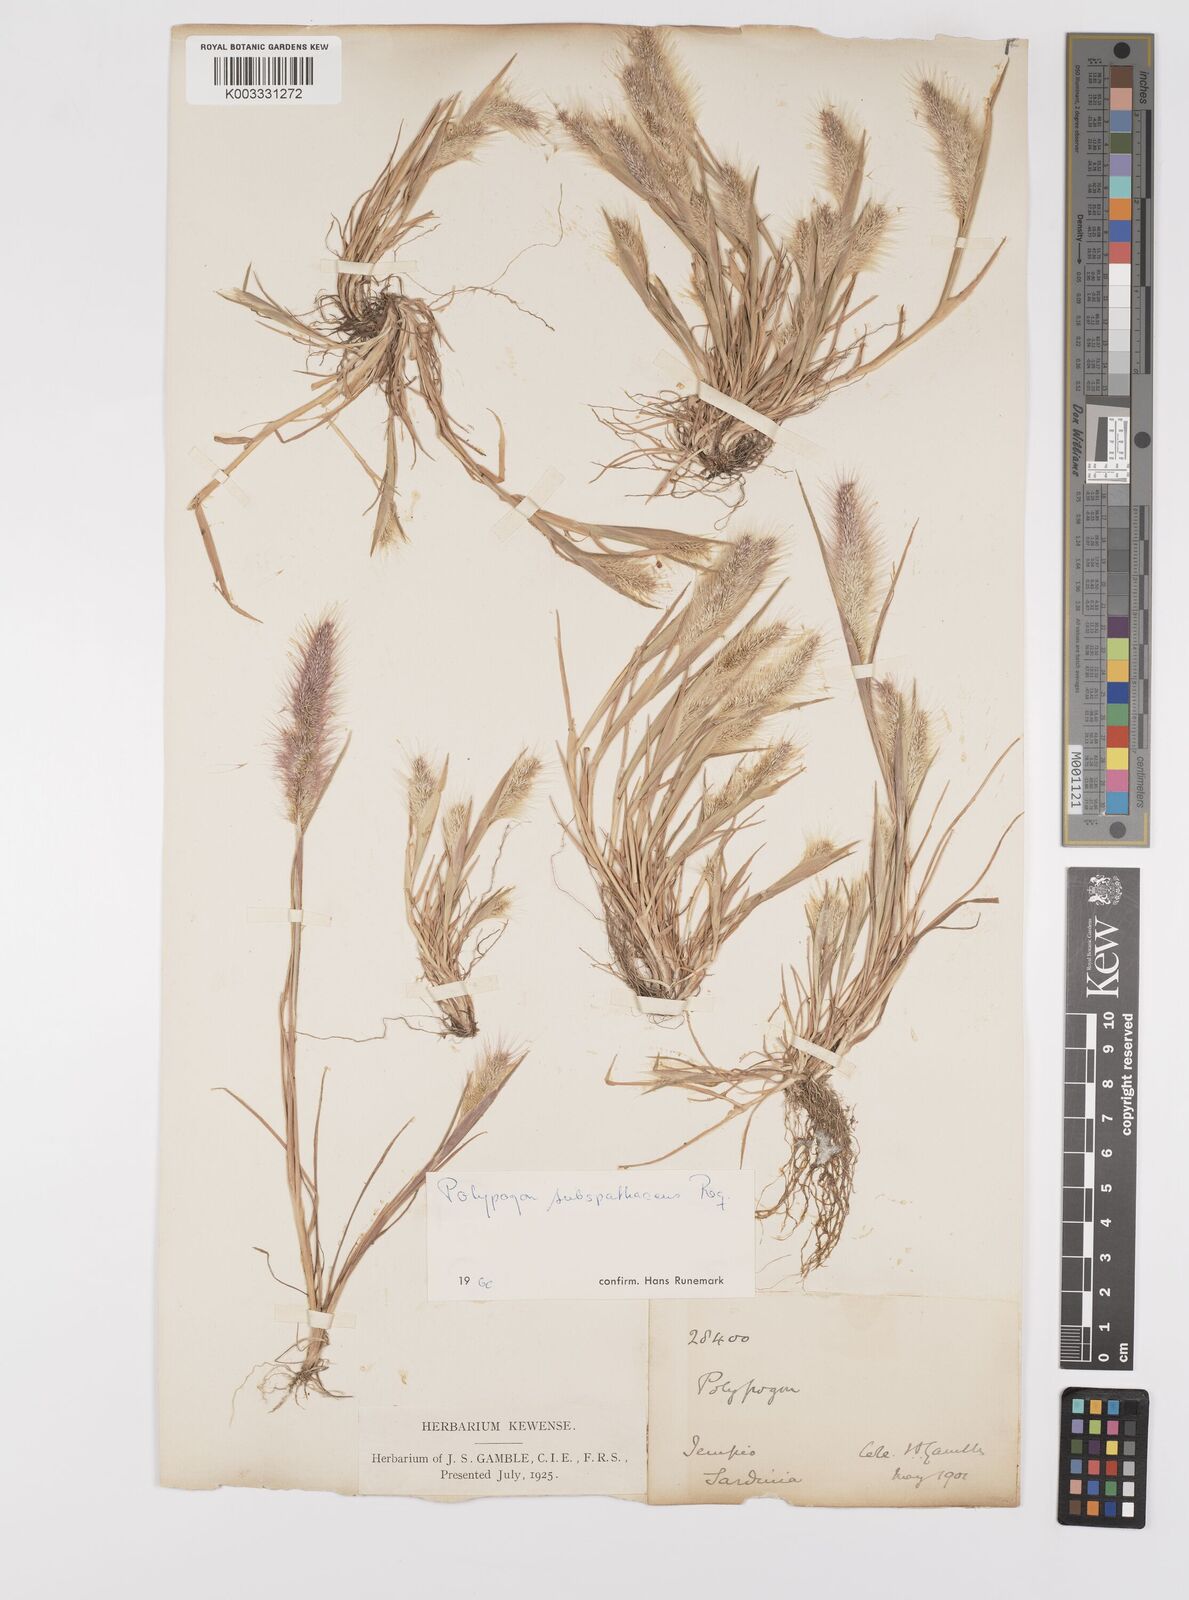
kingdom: Plantae
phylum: Tracheophyta
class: Liliopsida
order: Poales
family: Poaceae
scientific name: Poaceae
